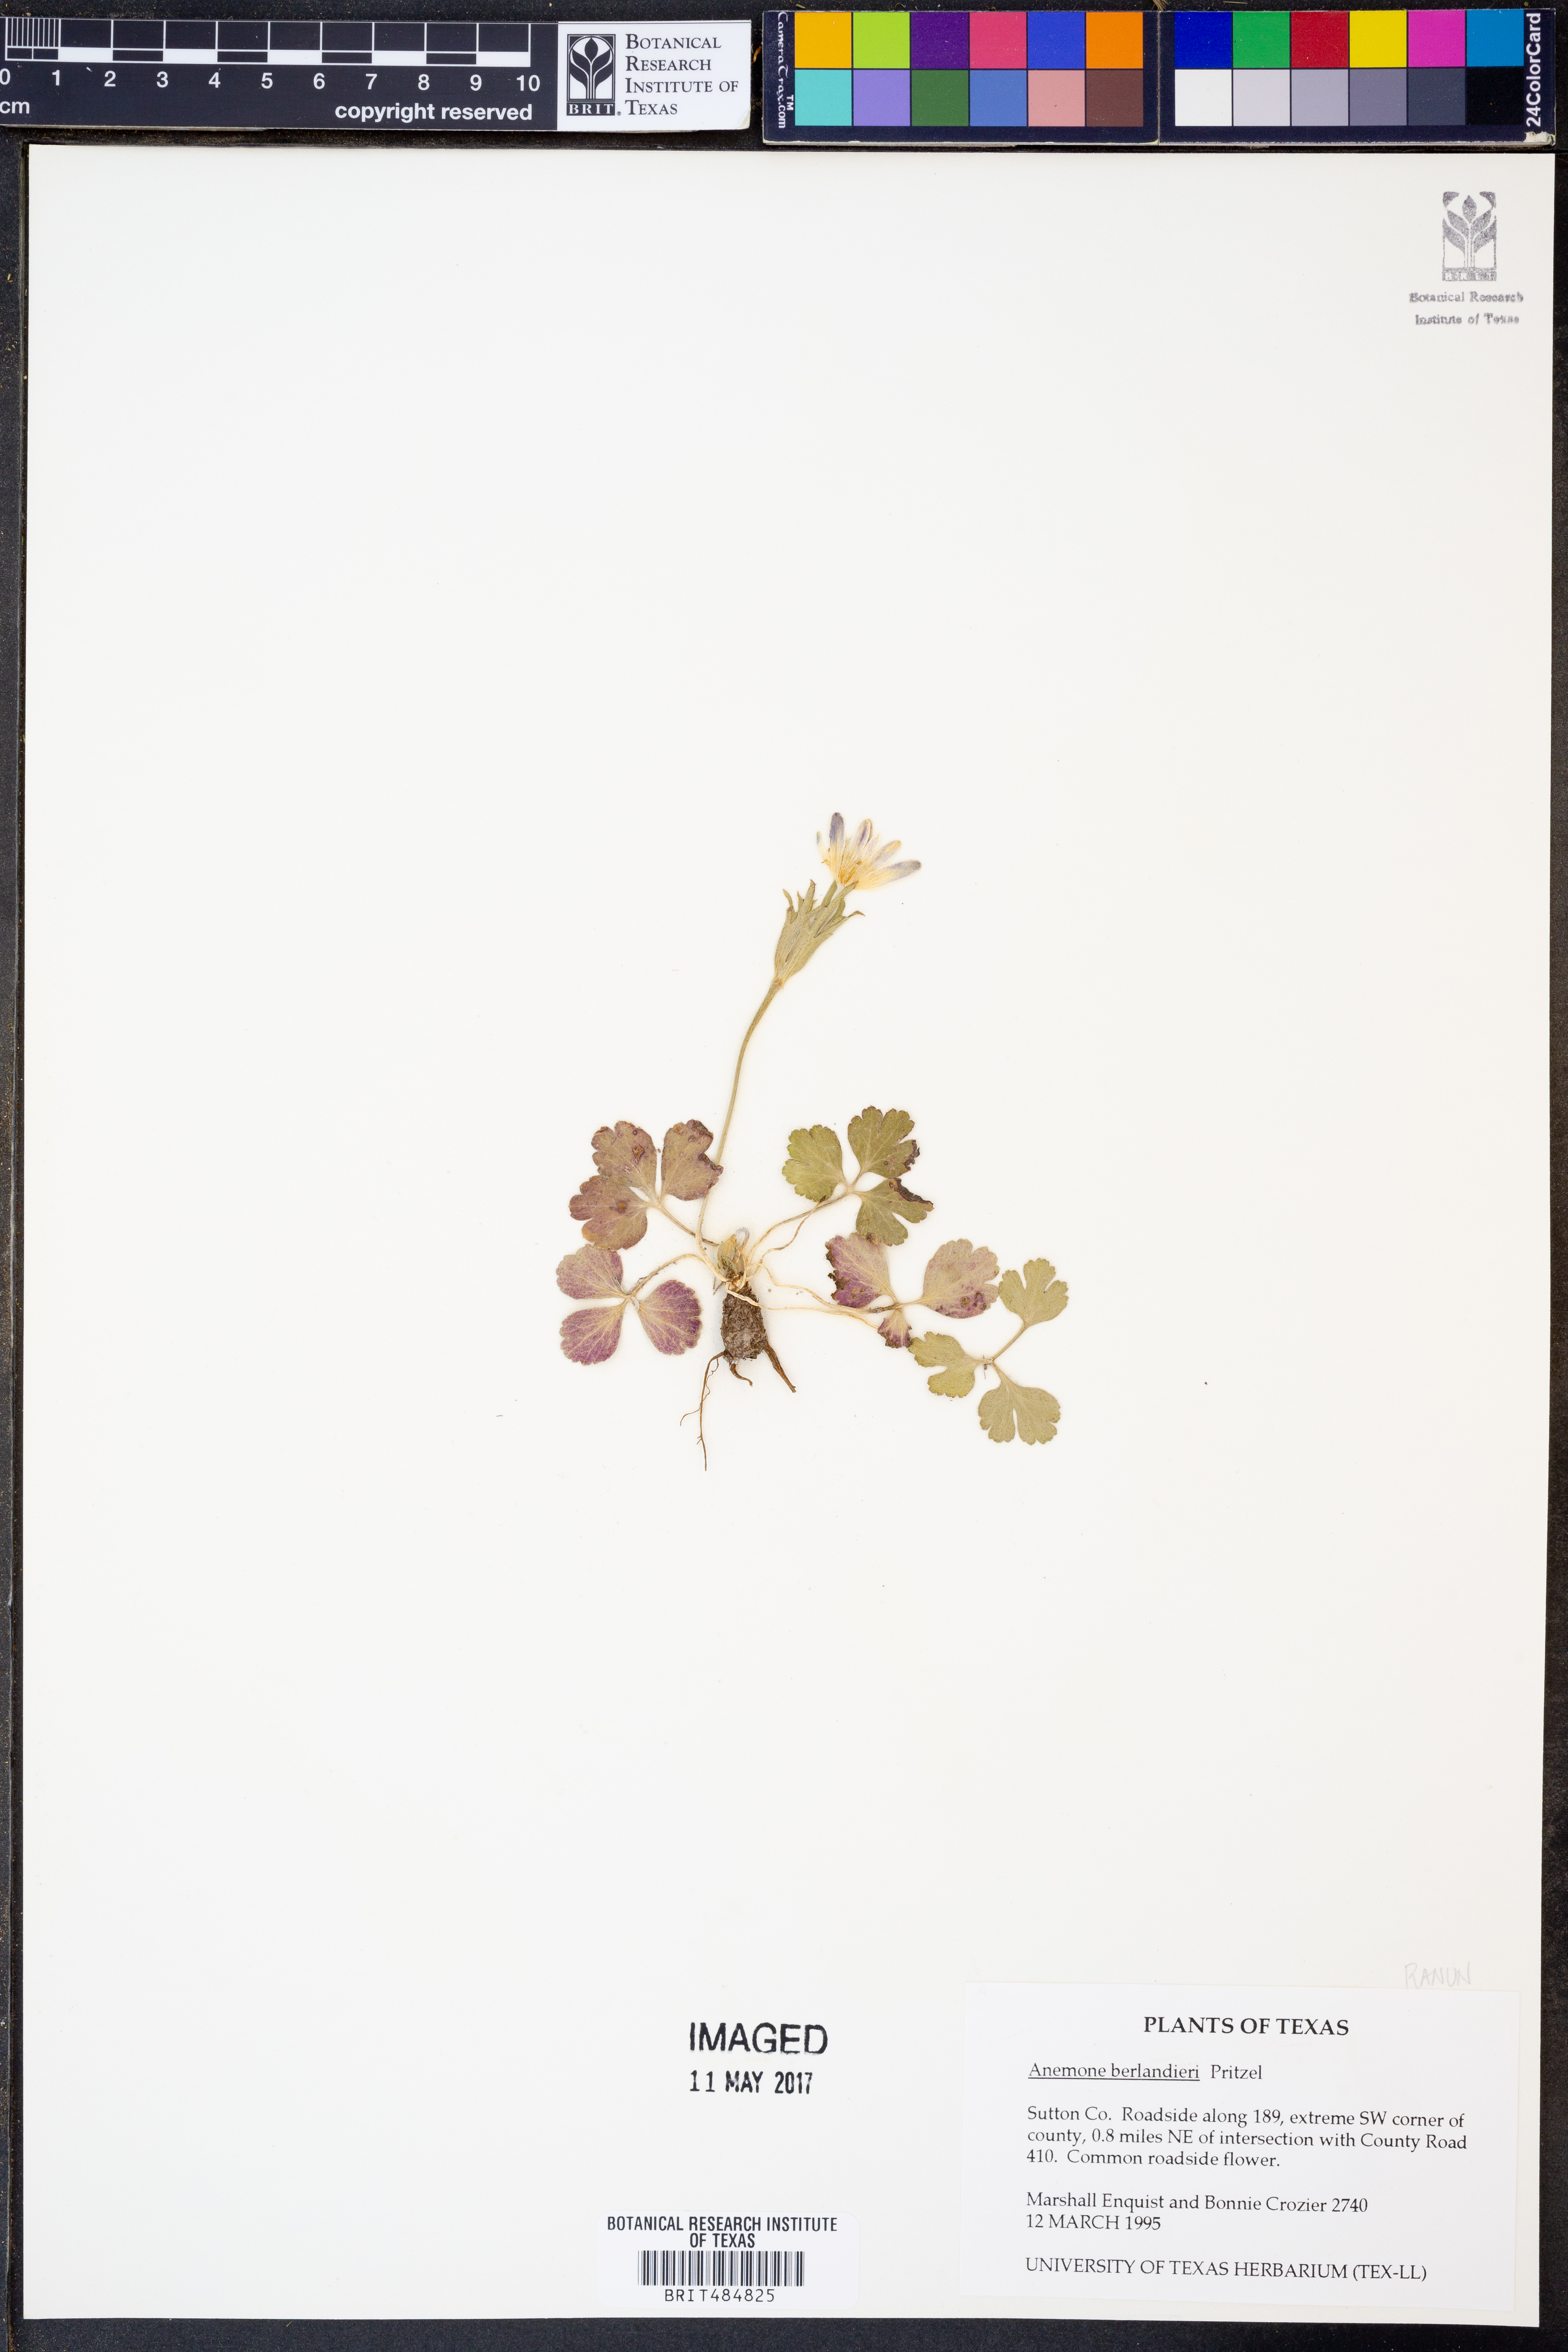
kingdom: Plantae
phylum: Tracheophyta
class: Magnoliopsida
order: Ranunculales
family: Ranunculaceae
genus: Anemone
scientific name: Anemone berlandieri
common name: Ten-petal anemone
